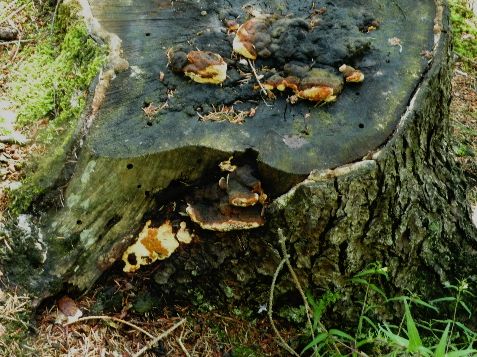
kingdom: Fungi
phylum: Basidiomycota
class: Agaricomycetes
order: Gloeophyllales
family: Gloeophyllaceae
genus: Gloeophyllum
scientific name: Gloeophyllum odoratum
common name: duftende korkhat
